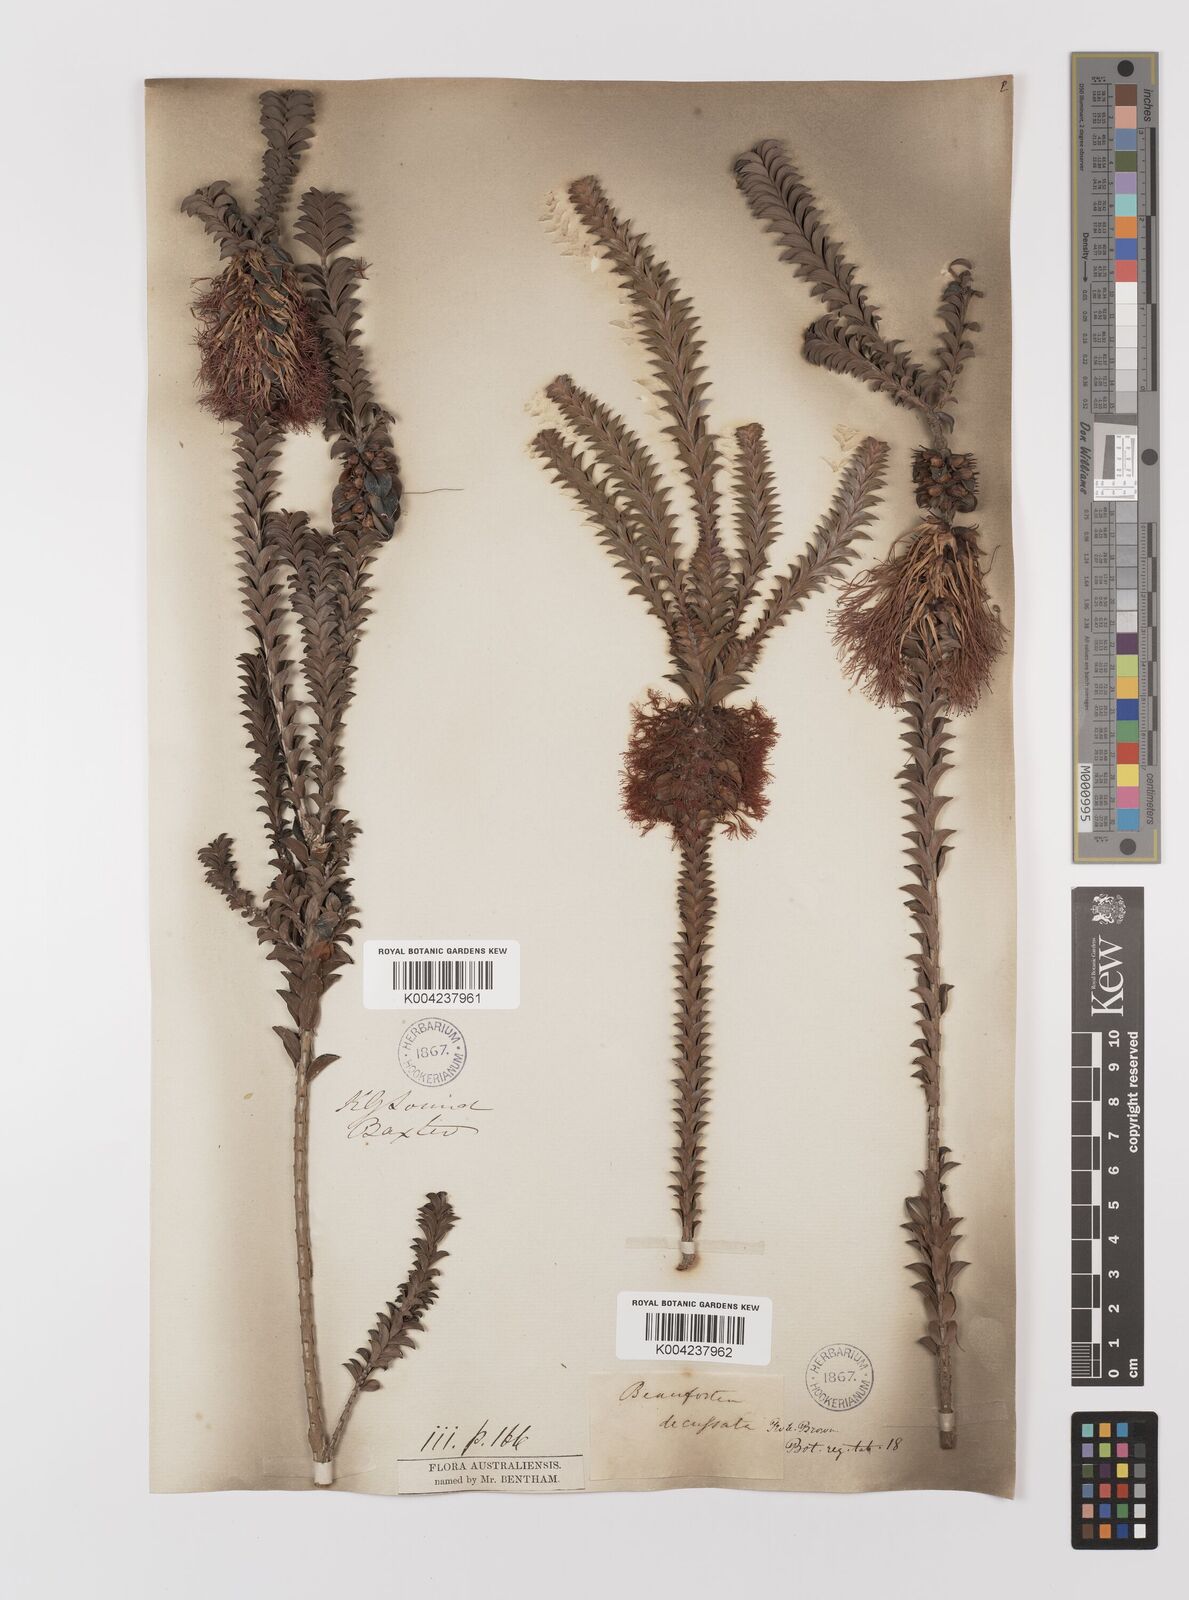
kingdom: Plantae
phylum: Tracheophyta
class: Magnoliopsida
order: Myrtales
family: Myrtaceae
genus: Melaleuca
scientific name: Melaleuca transversa
